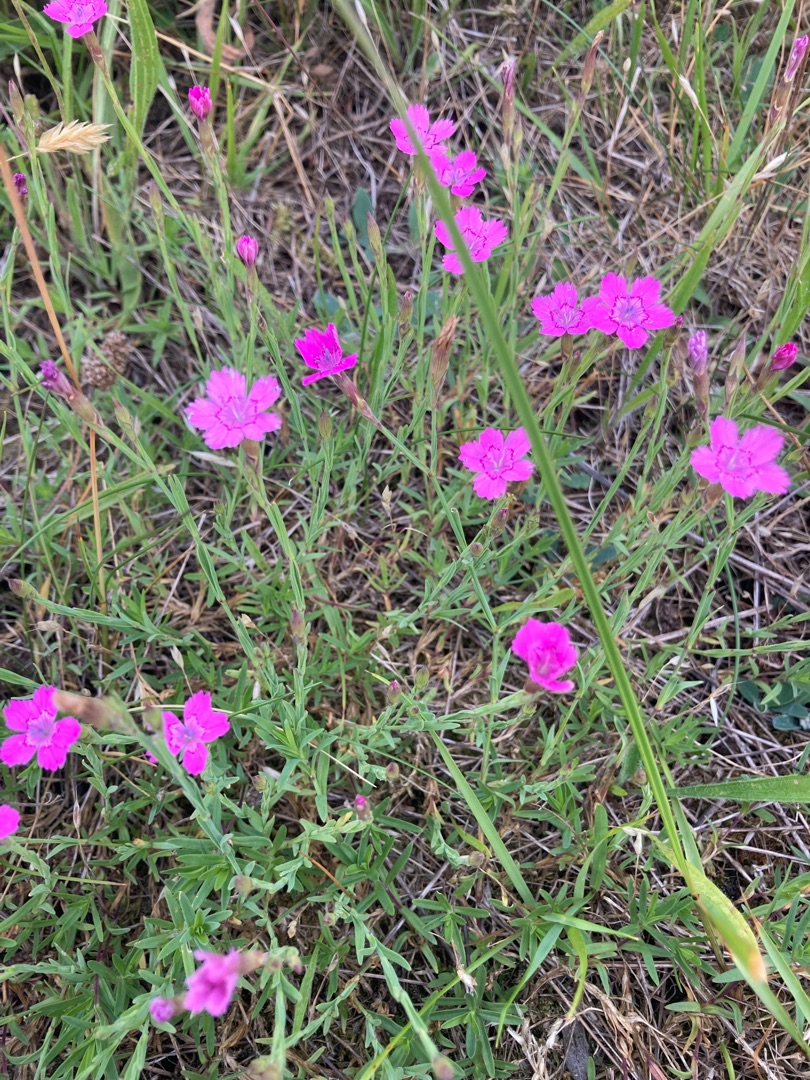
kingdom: Plantae
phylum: Tracheophyta
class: Magnoliopsida
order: Caryophyllales
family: Caryophyllaceae
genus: Dianthus
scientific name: Dianthus deltoides
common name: Bakke-nellike
